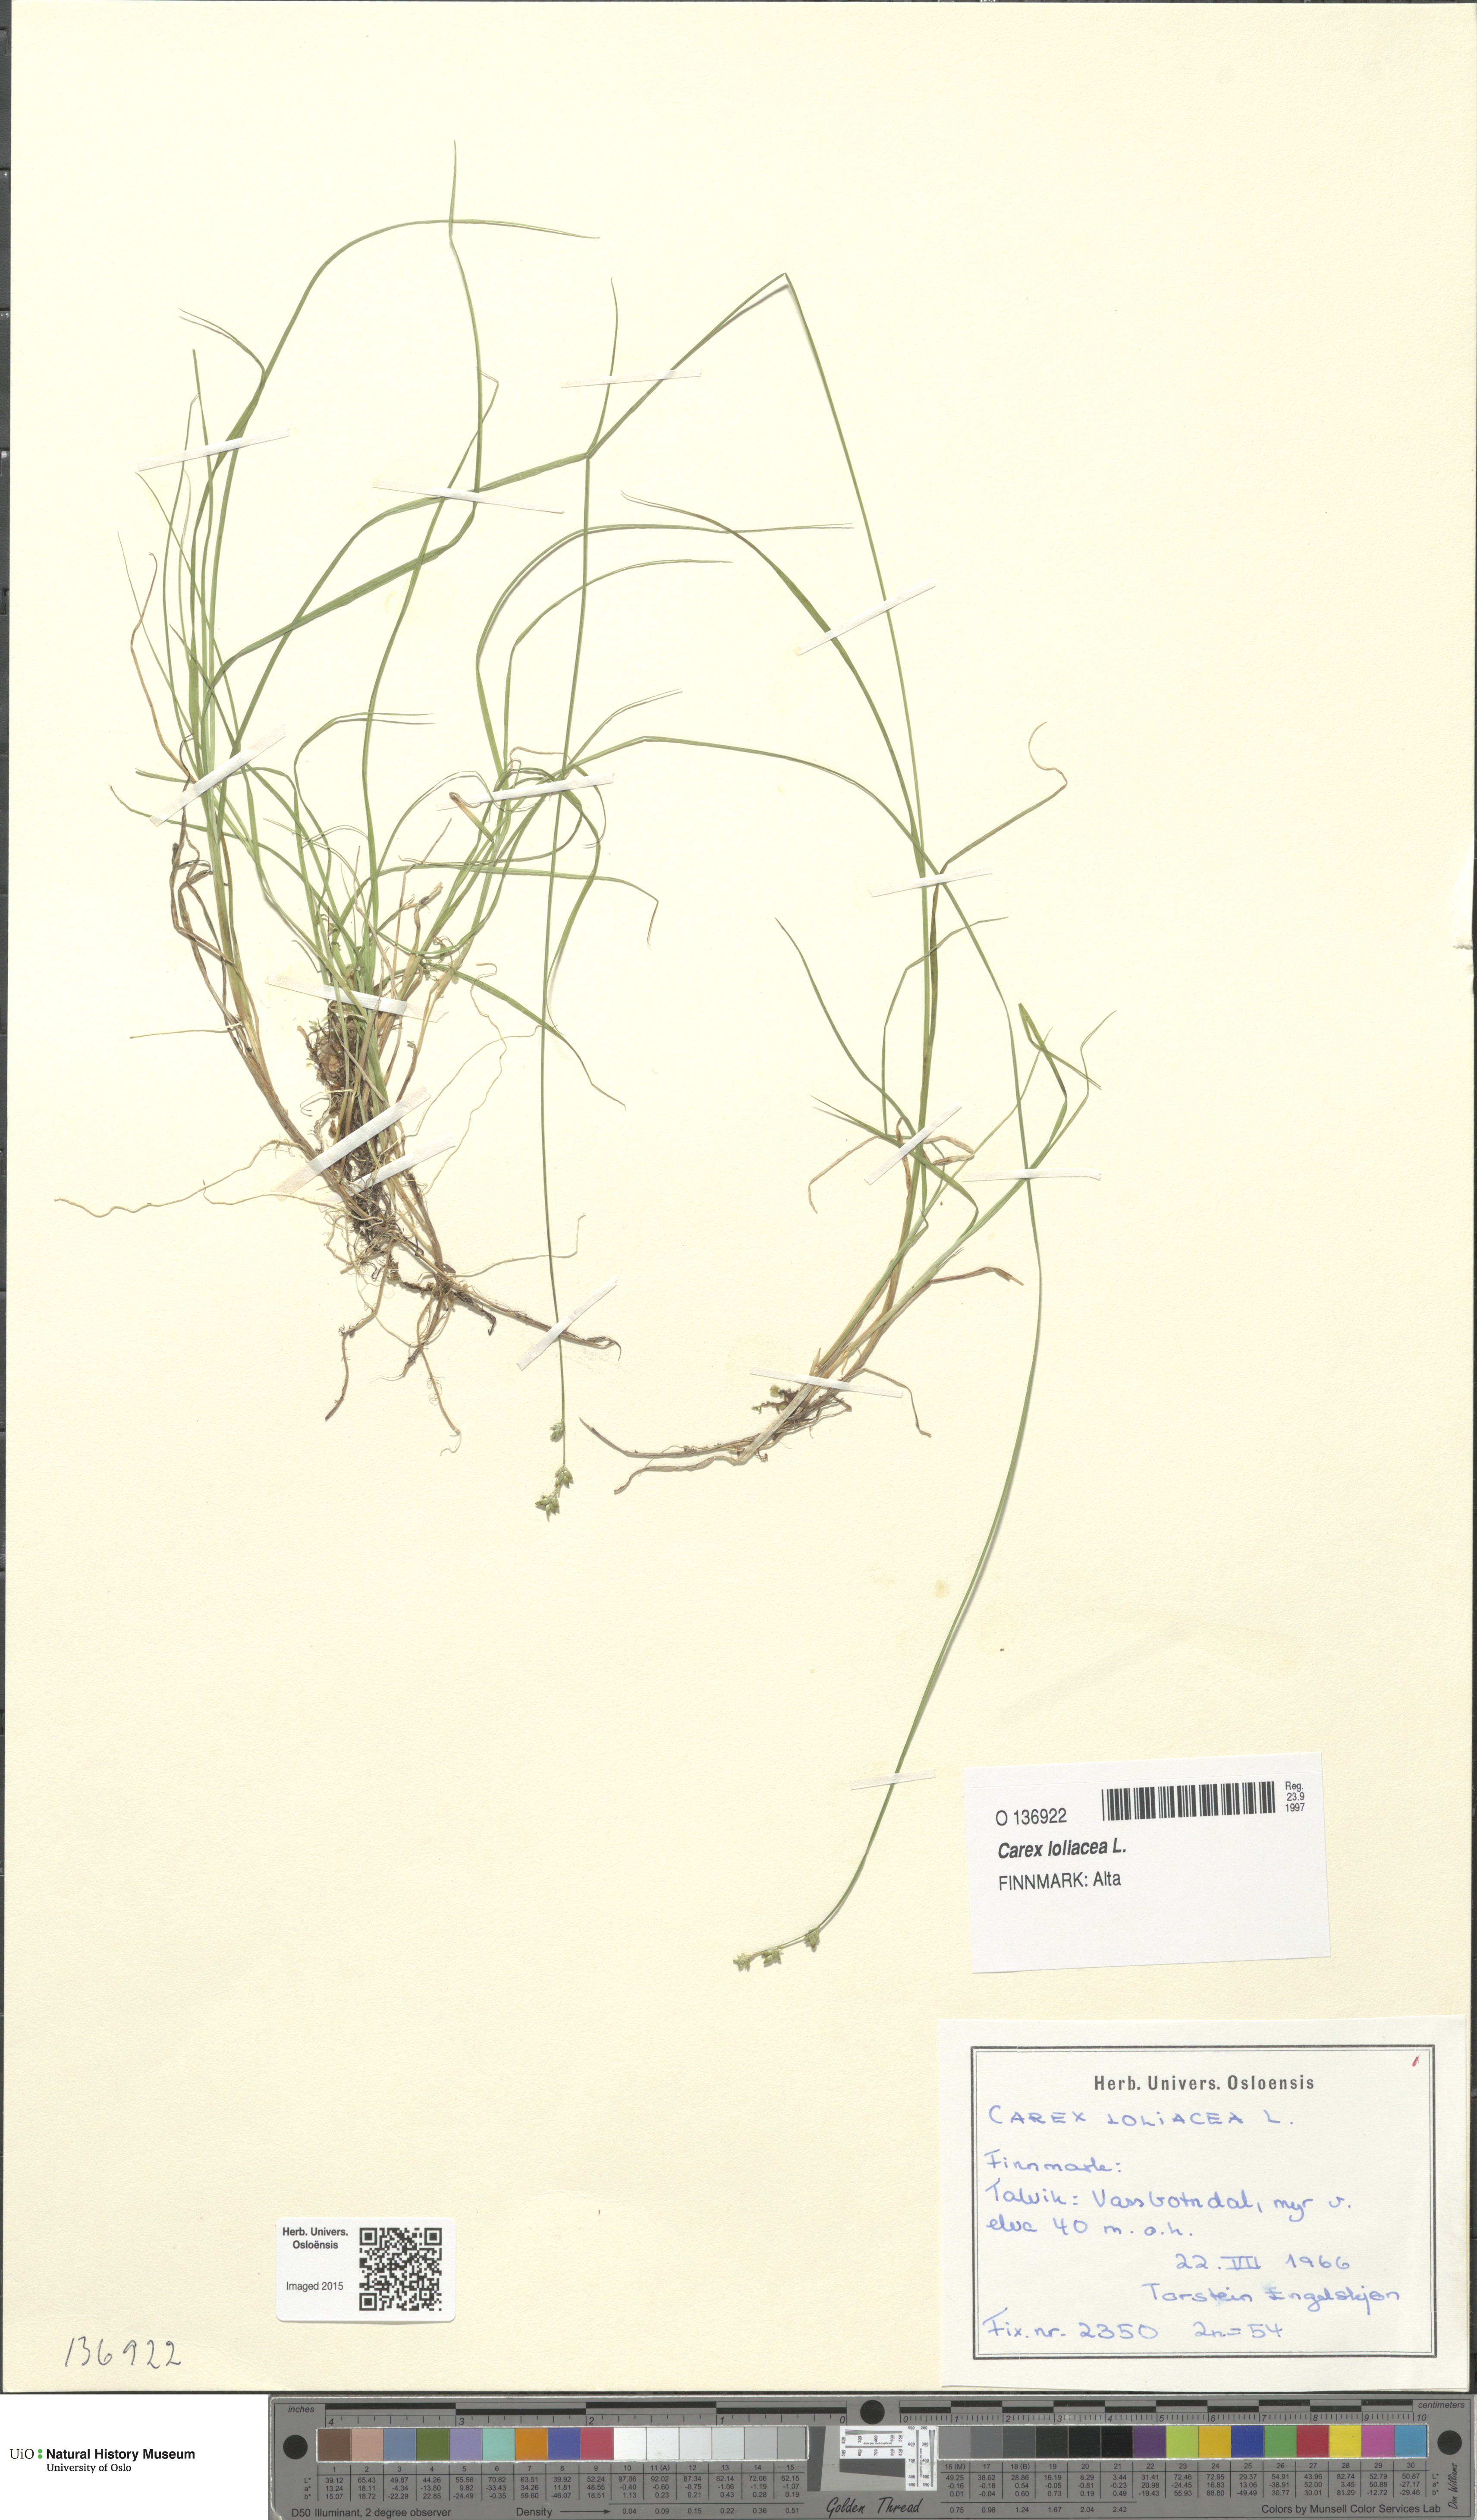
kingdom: Plantae
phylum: Tracheophyta
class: Liliopsida
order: Poales
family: Cyperaceae
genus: Carex
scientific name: Carex loliacea
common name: Ryegrass sedge
